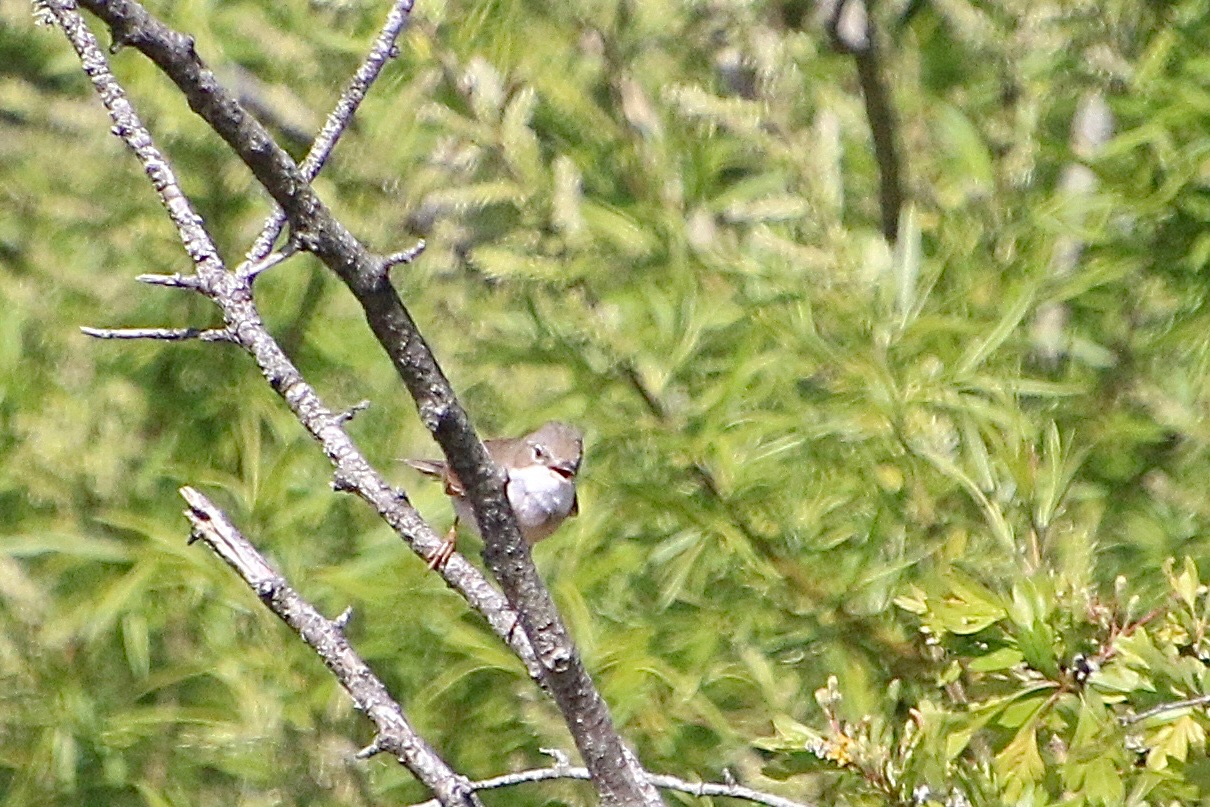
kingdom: Animalia
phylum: Chordata
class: Aves
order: Passeriformes
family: Sylviidae
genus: Sylvia
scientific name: Sylvia communis
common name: Tornsanger
